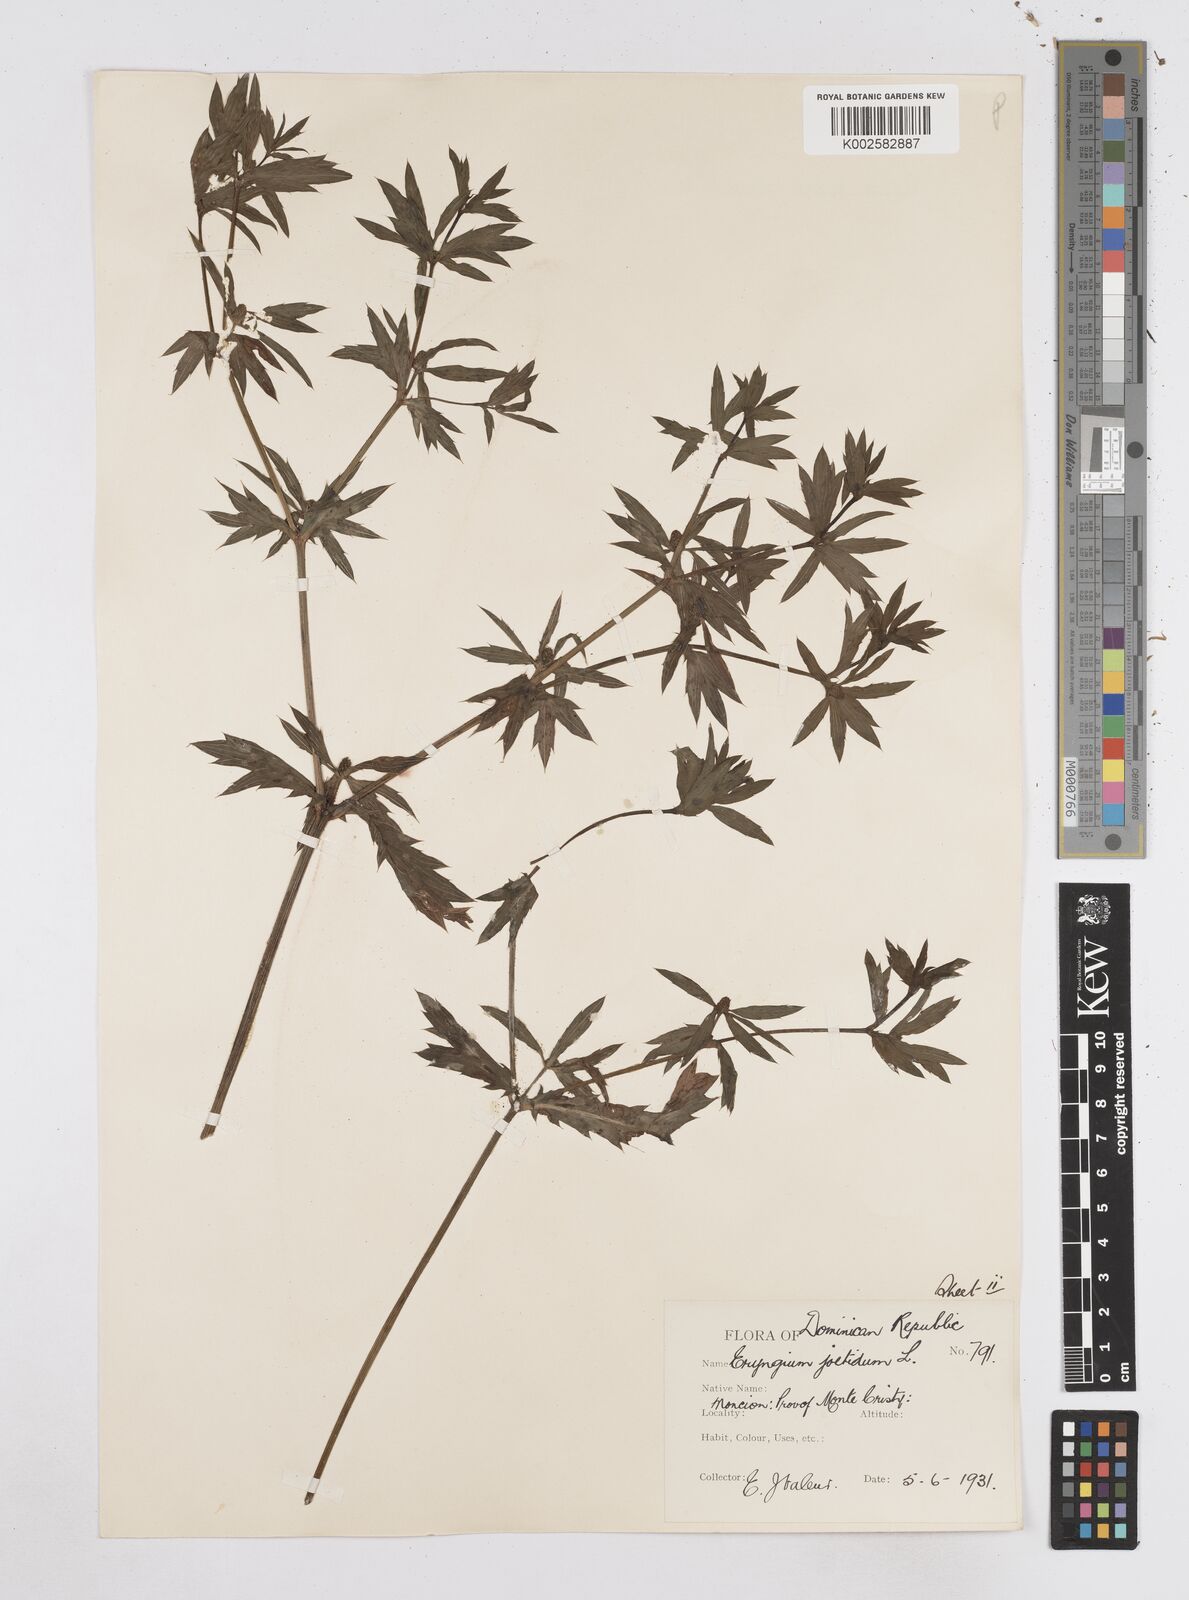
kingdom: Plantae
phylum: Tracheophyta
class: Magnoliopsida
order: Apiales
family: Apiaceae
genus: Eryngium
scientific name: Eryngium foetidum
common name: Fitweed
